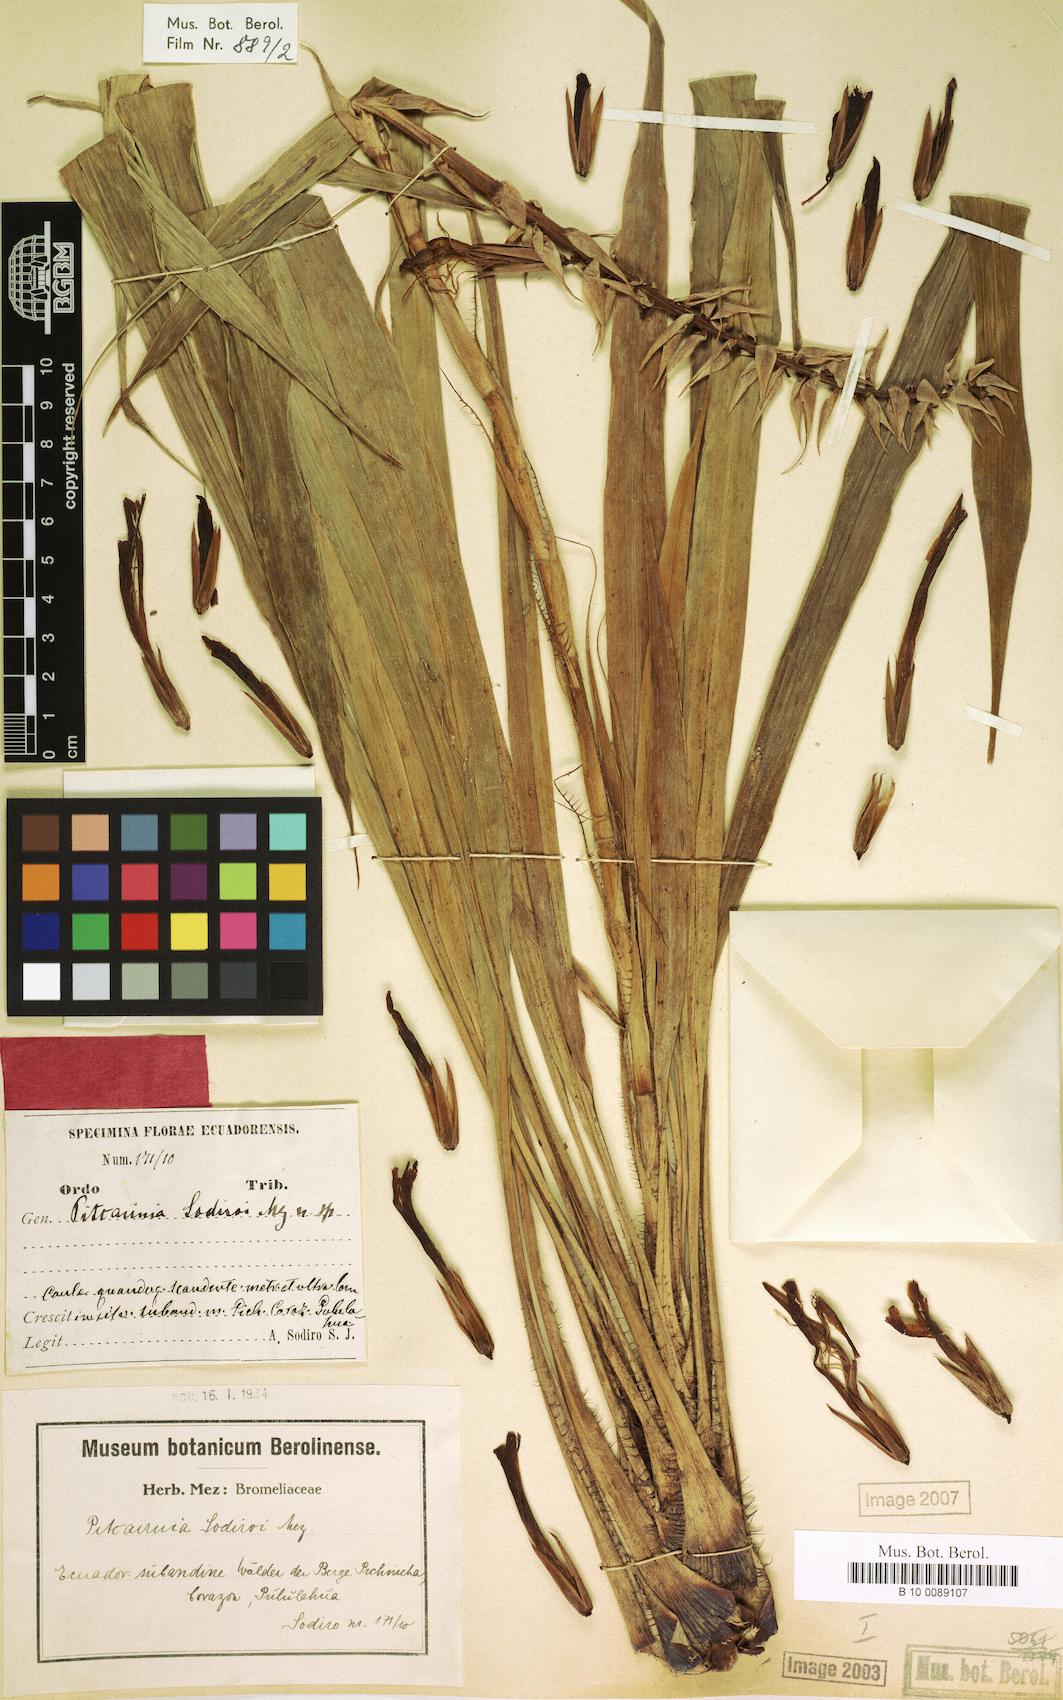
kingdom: Plantae
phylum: Tracheophyta
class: Liliopsida
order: Poales
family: Bromeliaceae
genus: Pitcairnia
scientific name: Pitcairnia sodiroi
